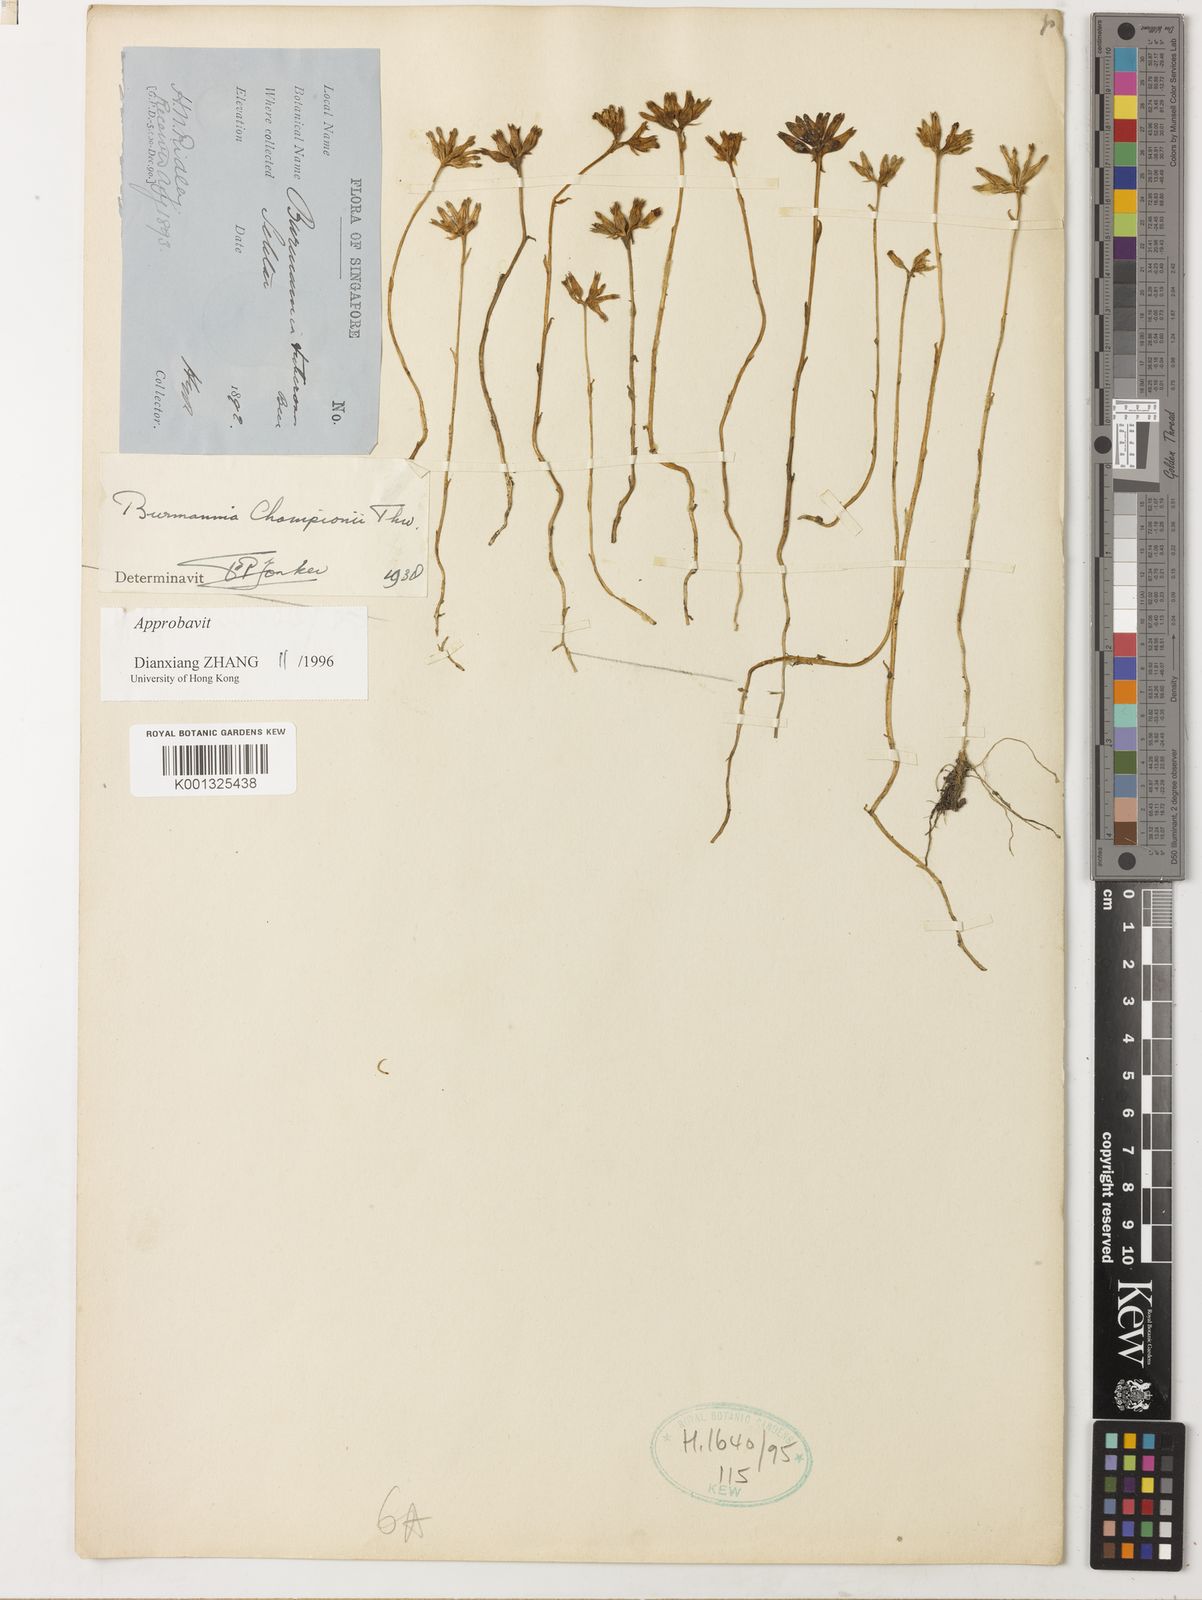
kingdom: Plantae
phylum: Tracheophyta
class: Liliopsida
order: Dioscoreales
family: Burmanniaceae
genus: Burmannia
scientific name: Burmannia championii
